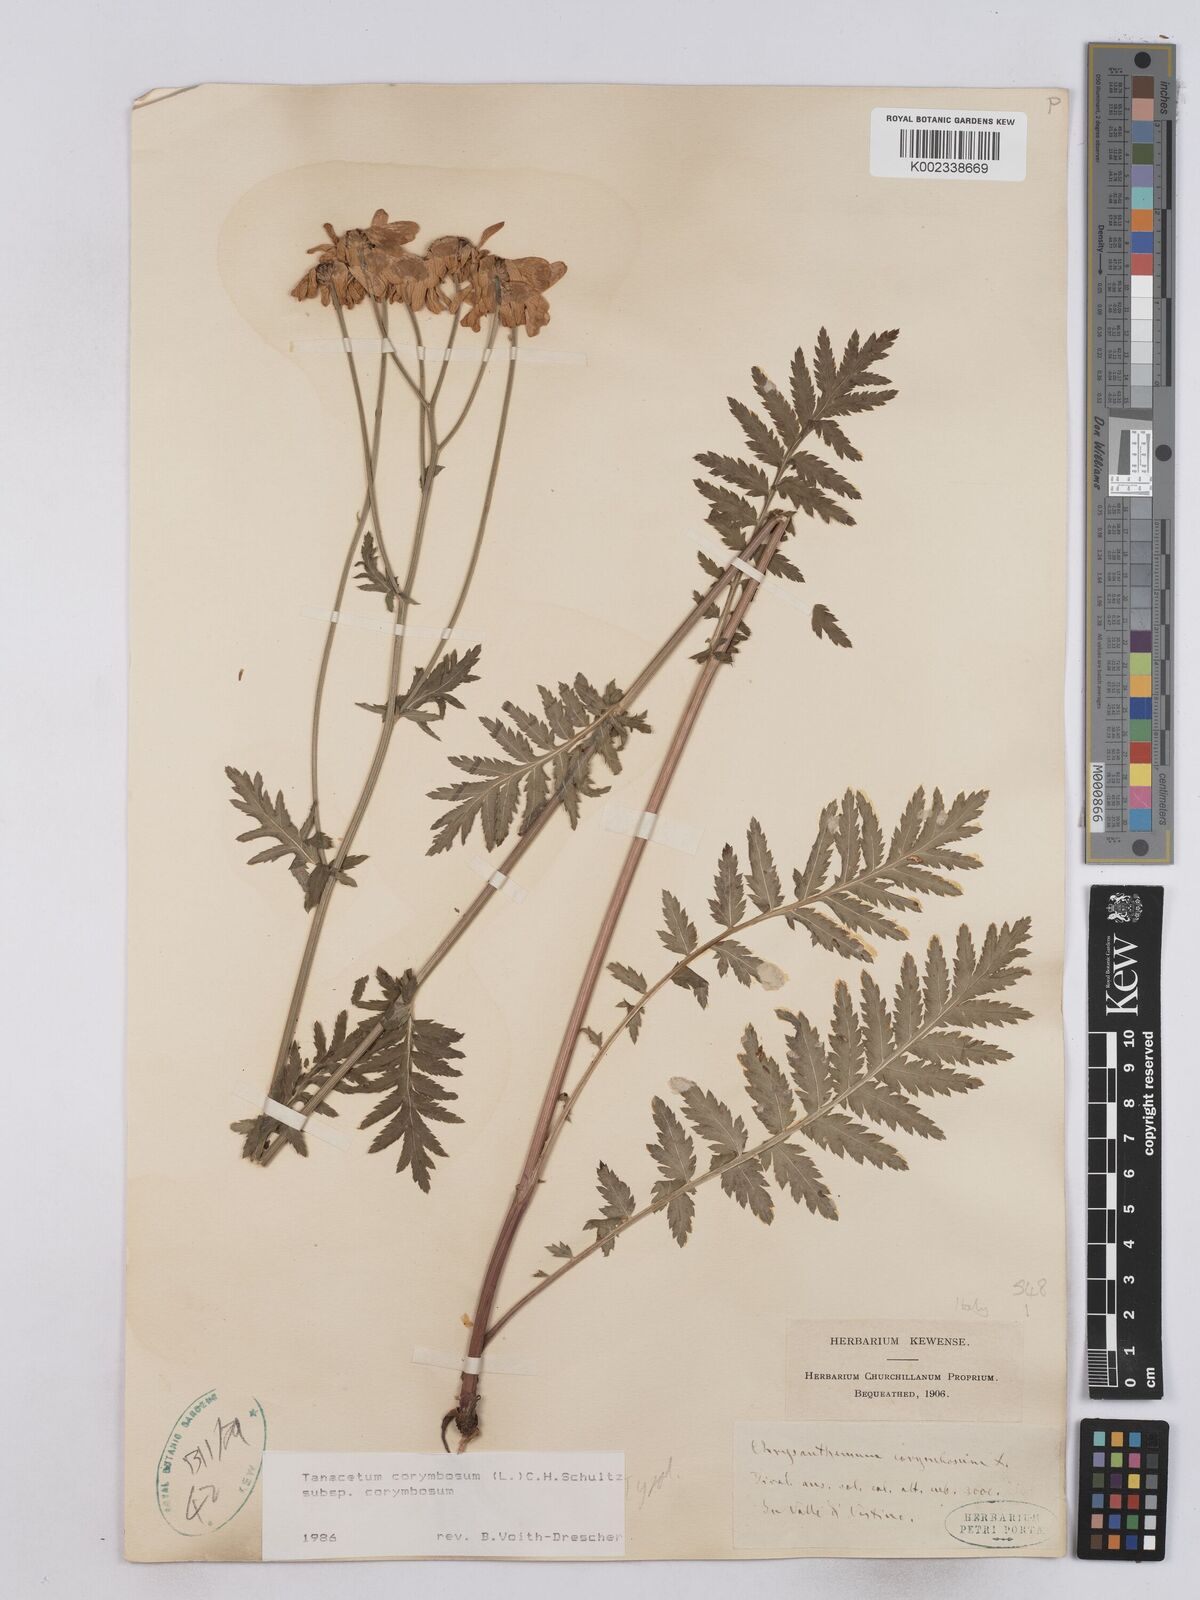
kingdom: Plantae
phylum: Tracheophyta
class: Magnoliopsida
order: Asterales
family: Asteraceae
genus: Tanacetum
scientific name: Tanacetum corymbosum
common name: Scentless feverfew
